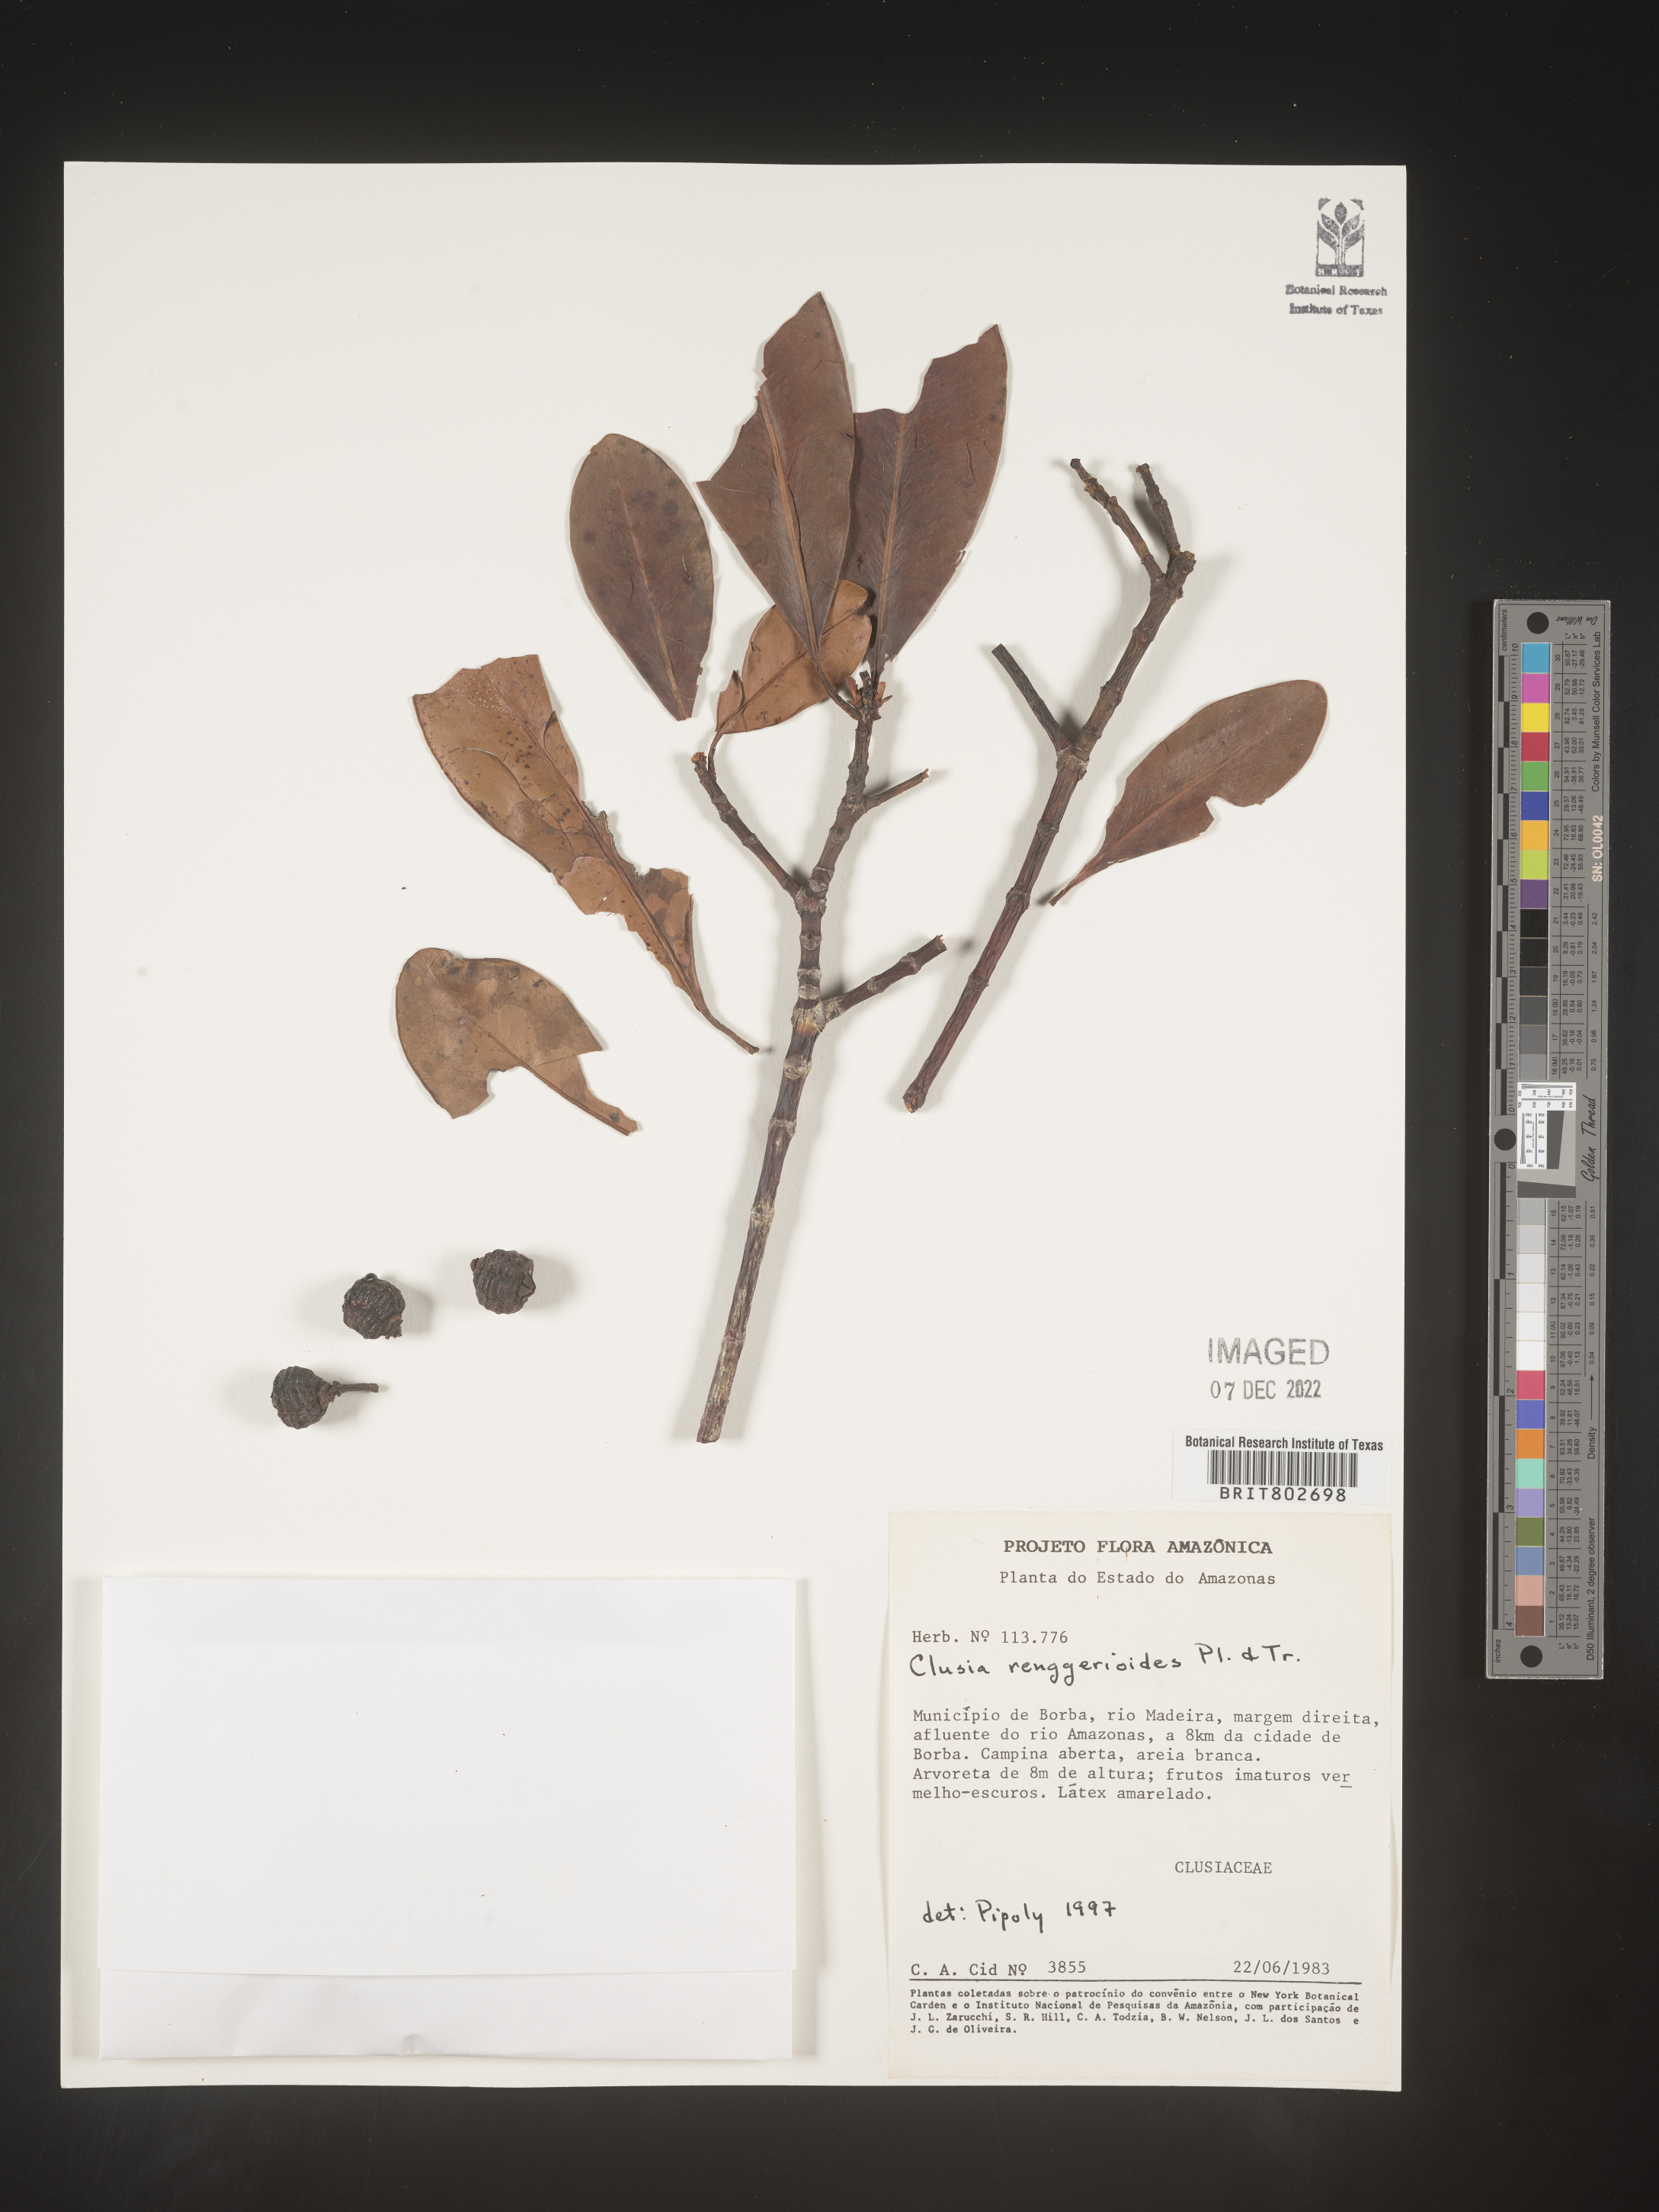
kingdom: Plantae
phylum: Tracheophyta
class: Magnoliopsida
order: Malpighiales
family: Clusiaceae
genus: Clusia
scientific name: Clusia renggerioides
